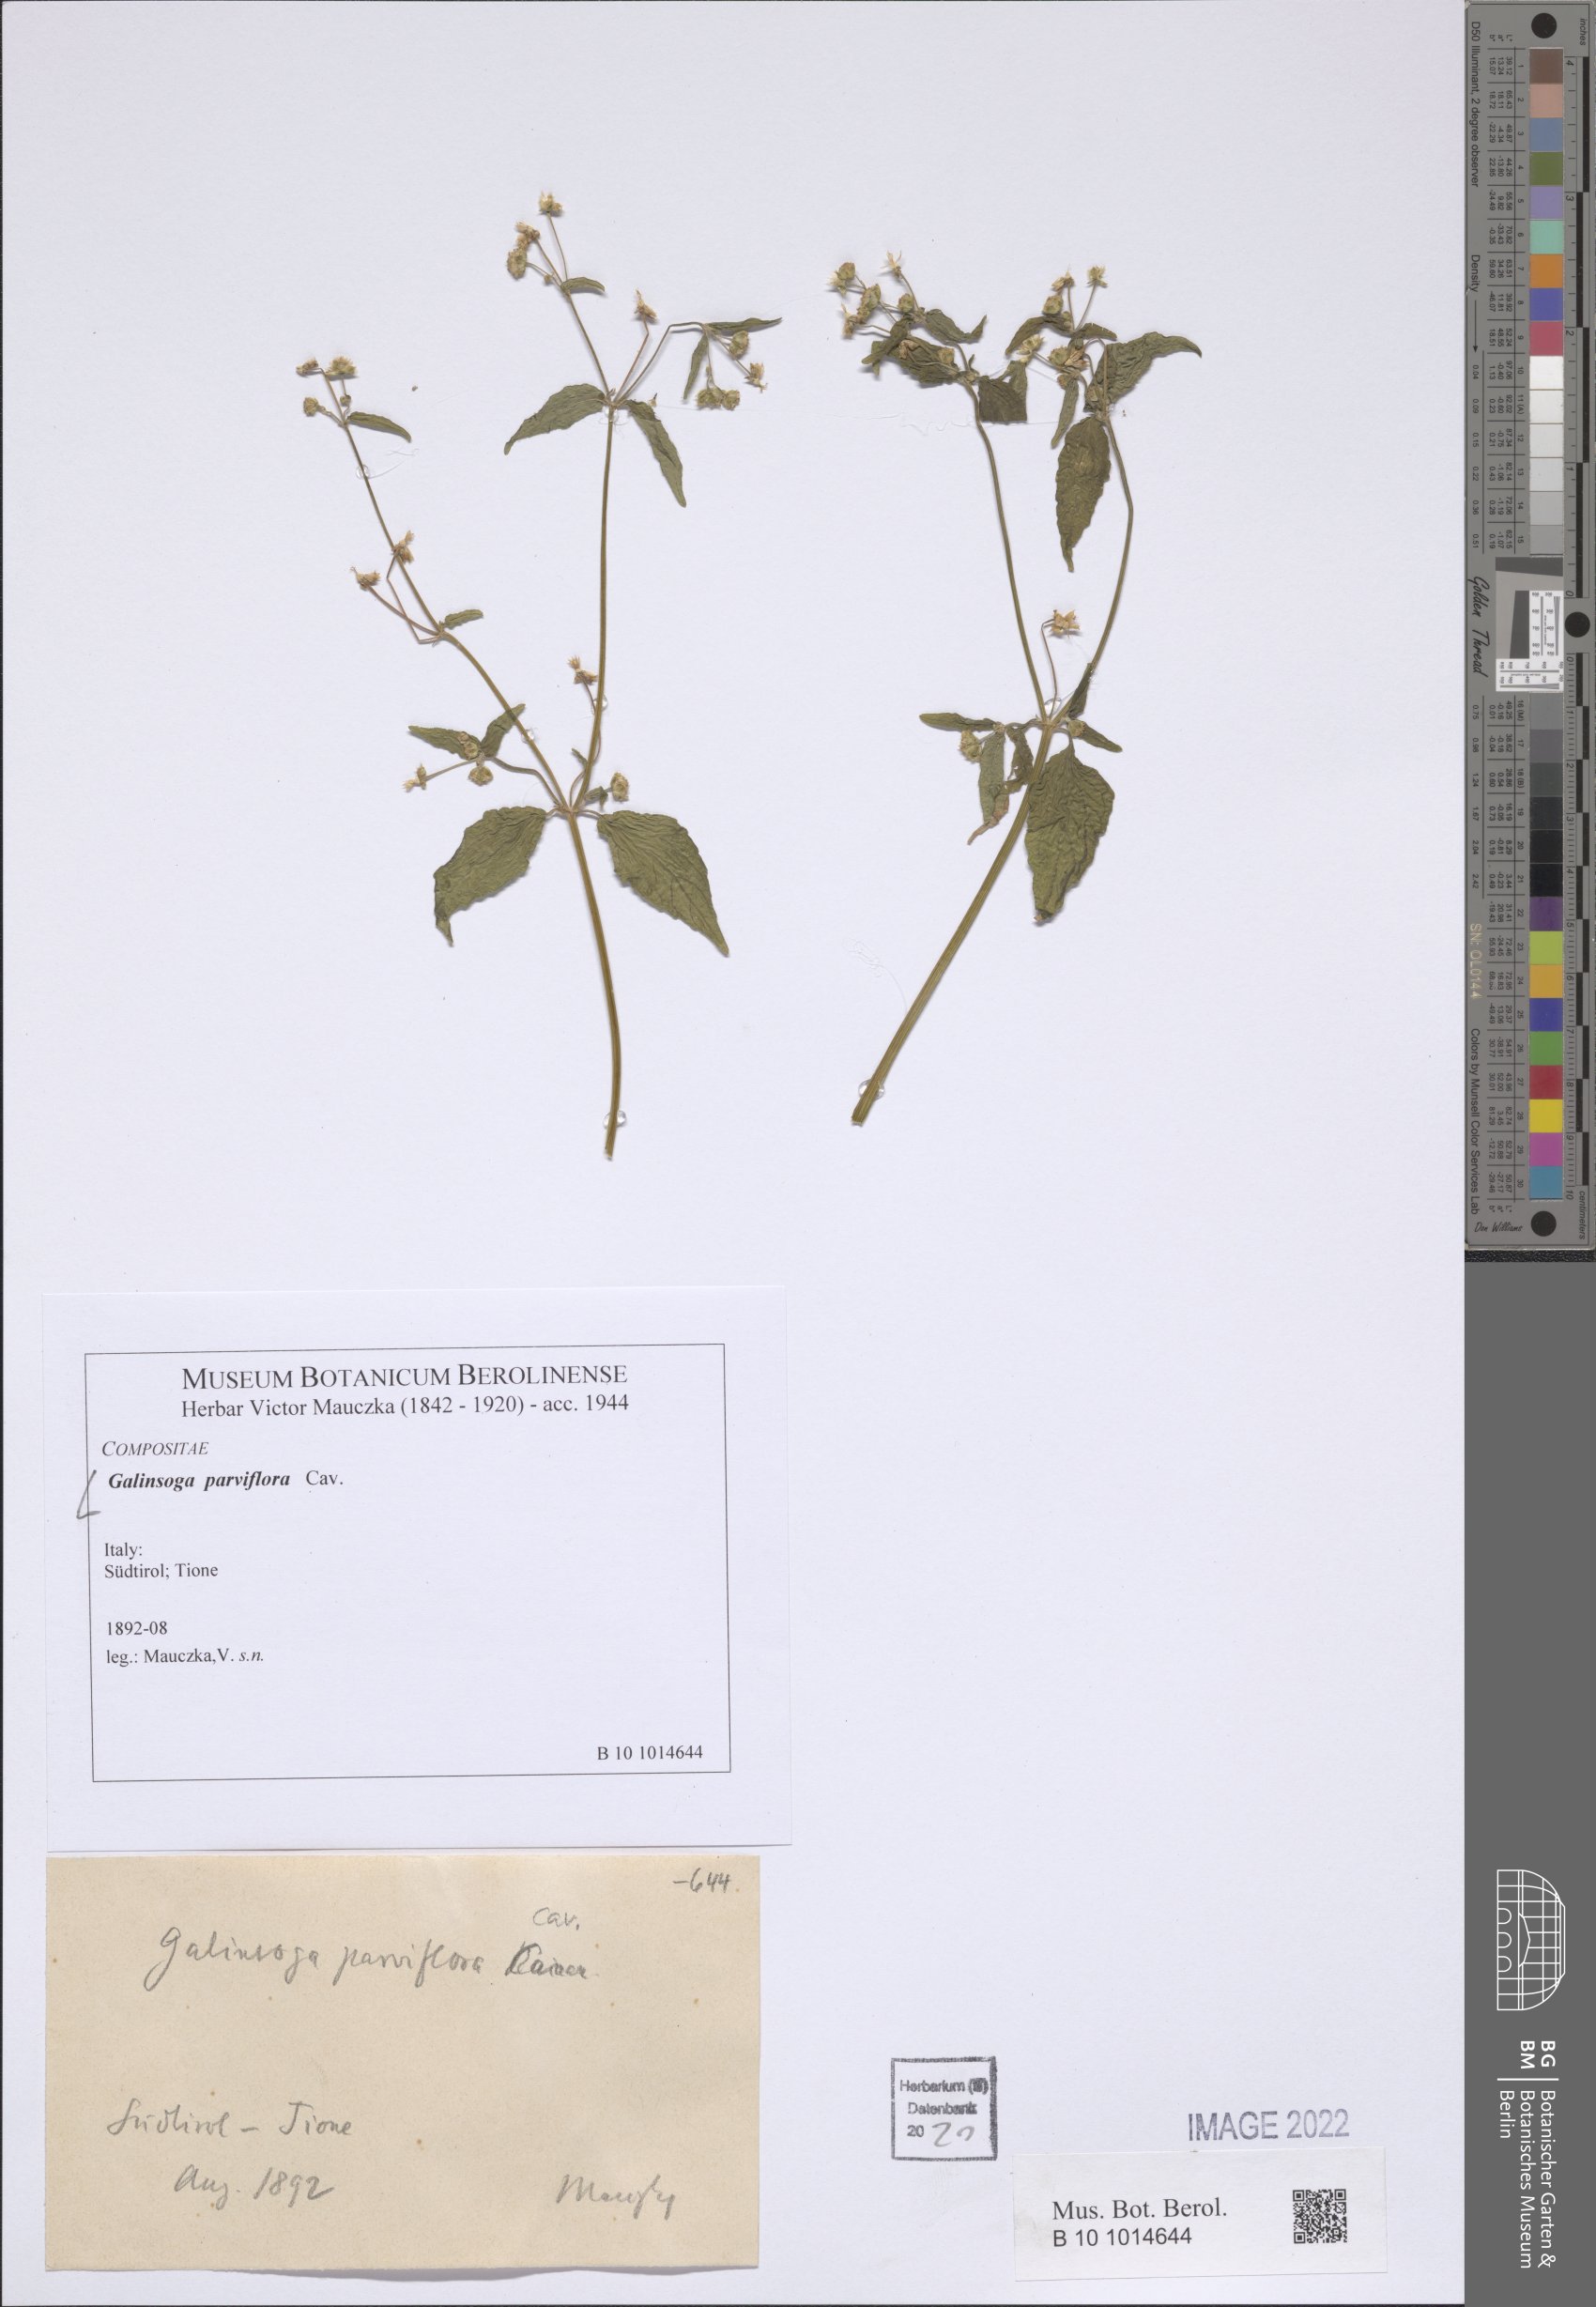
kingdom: Plantae
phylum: Tracheophyta
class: Magnoliopsida
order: Asterales
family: Asteraceae
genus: Galinsoga
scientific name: Galinsoga parviflora
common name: Gallant soldier
